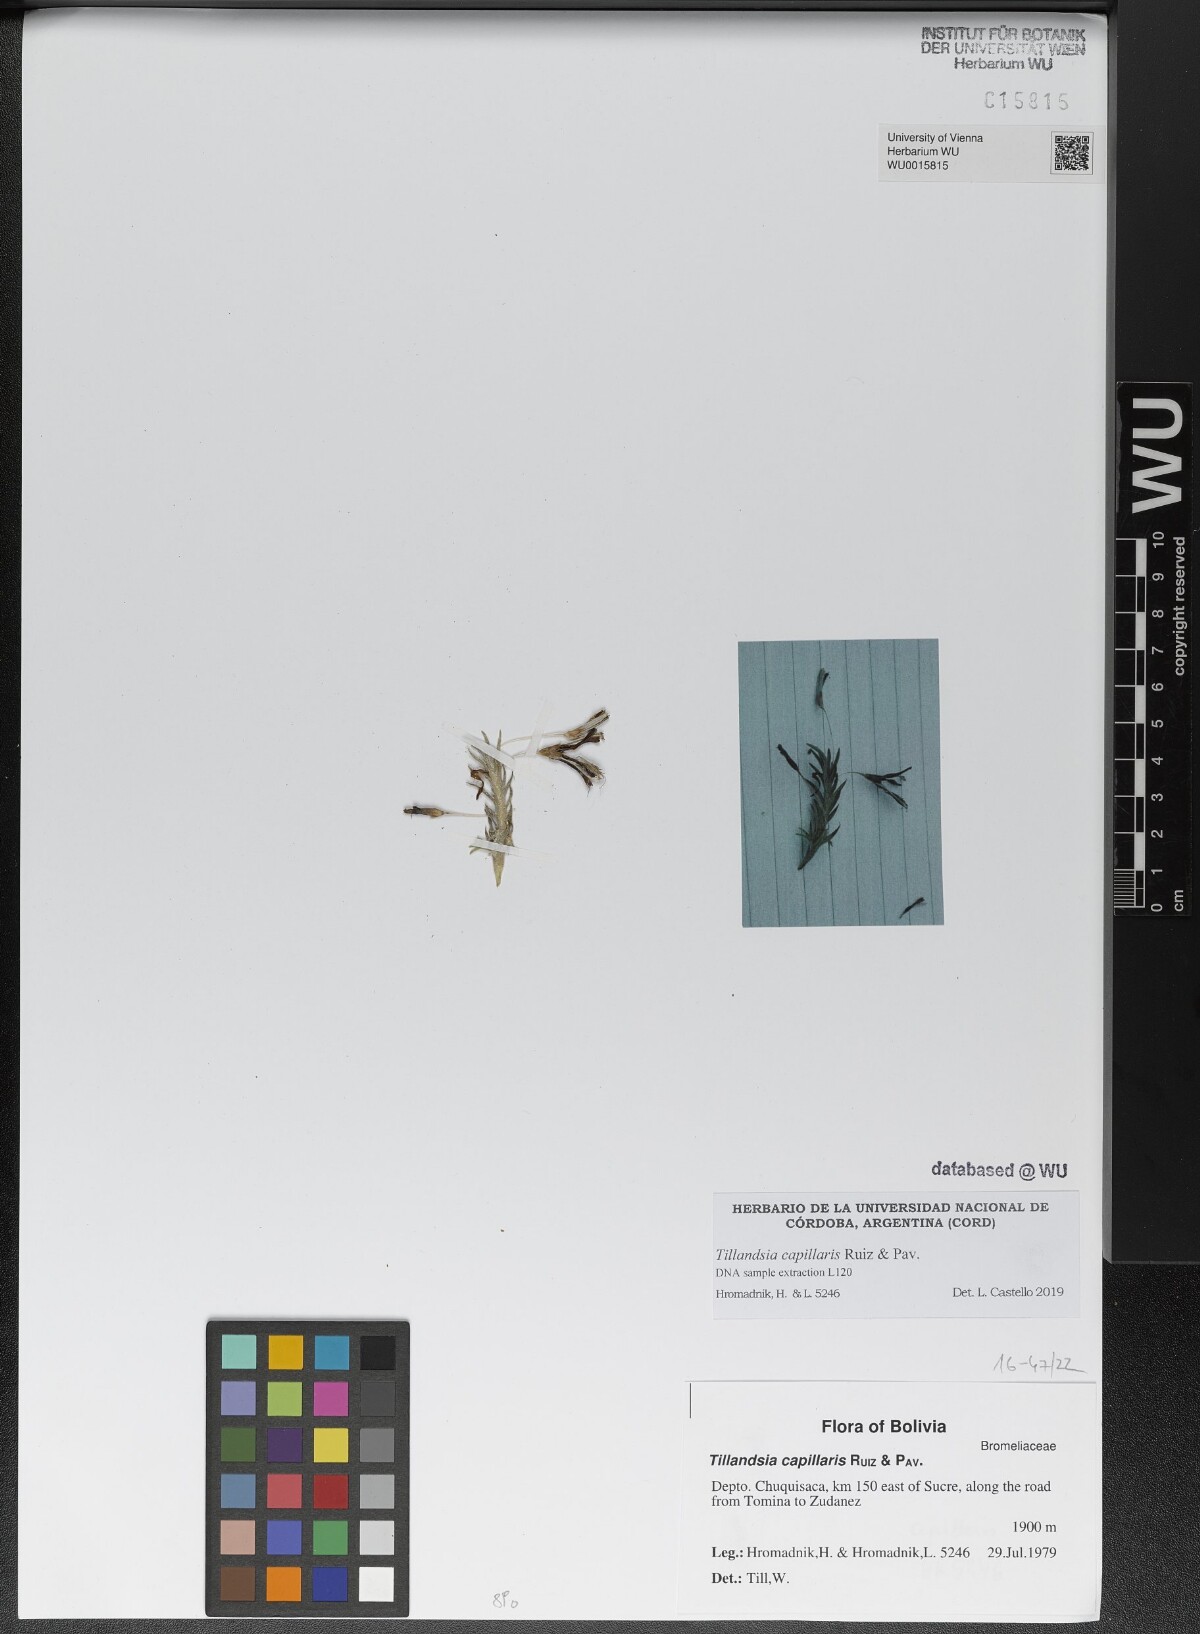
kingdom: Plantae
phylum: Tracheophyta
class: Liliopsida
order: Poales
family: Bromeliaceae
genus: Tillandsia
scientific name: Tillandsia capillaris
